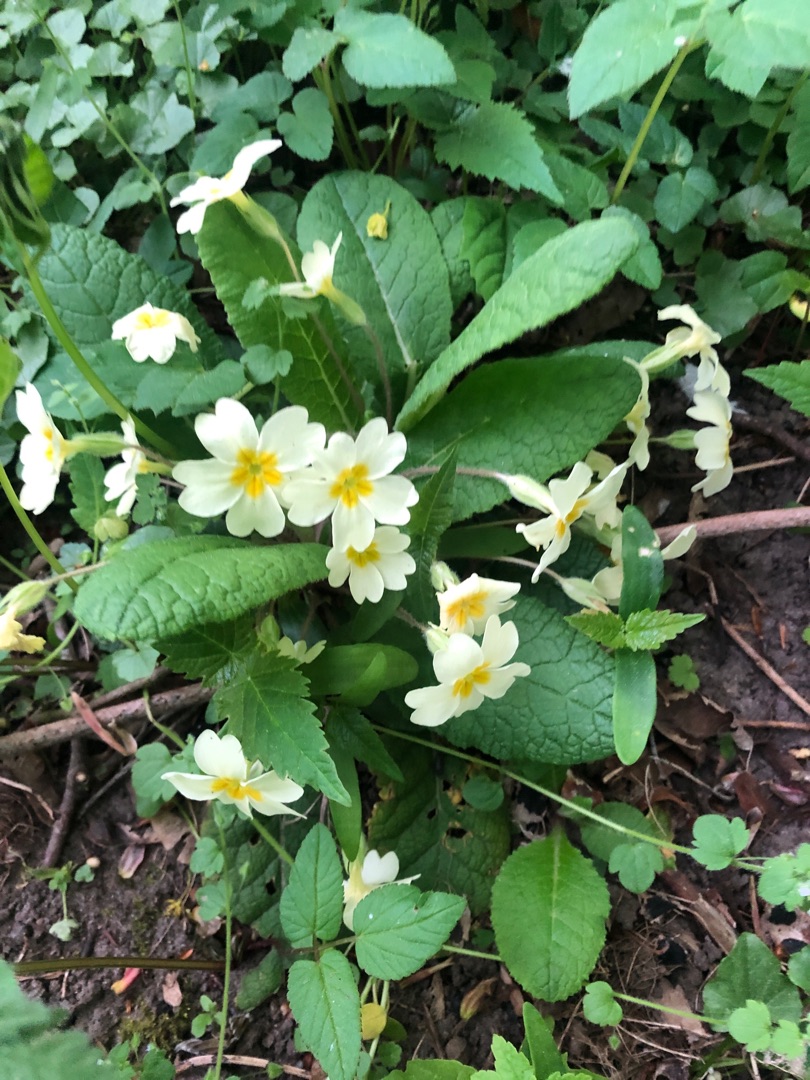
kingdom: Plantae
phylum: Tracheophyta
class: Magnoliopsida
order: Ericales
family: Primulaceae
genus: Primula
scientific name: Primula vulgaris
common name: Storblomstret kodriver
